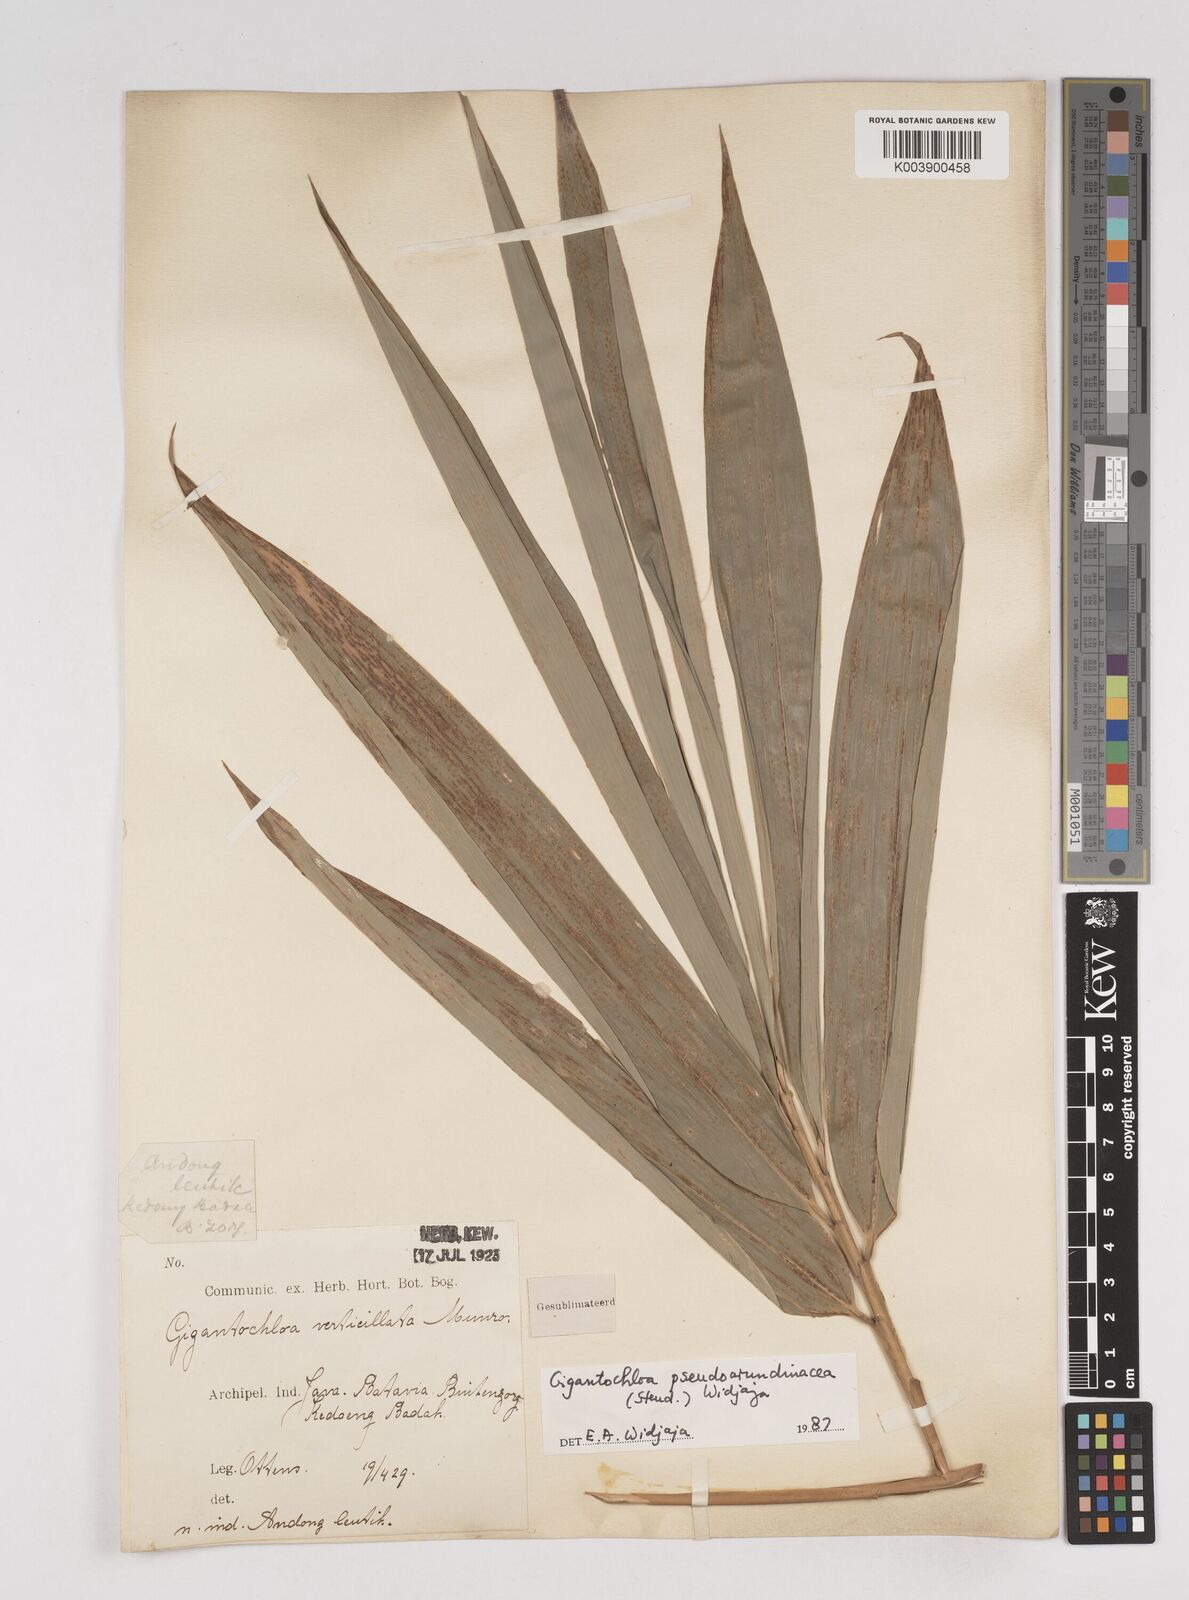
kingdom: Plantae
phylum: Tracheophyta
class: Liliopsida
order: Poales
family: Poaceae
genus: Gigantochloa
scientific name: Gigantochloa verticillata
